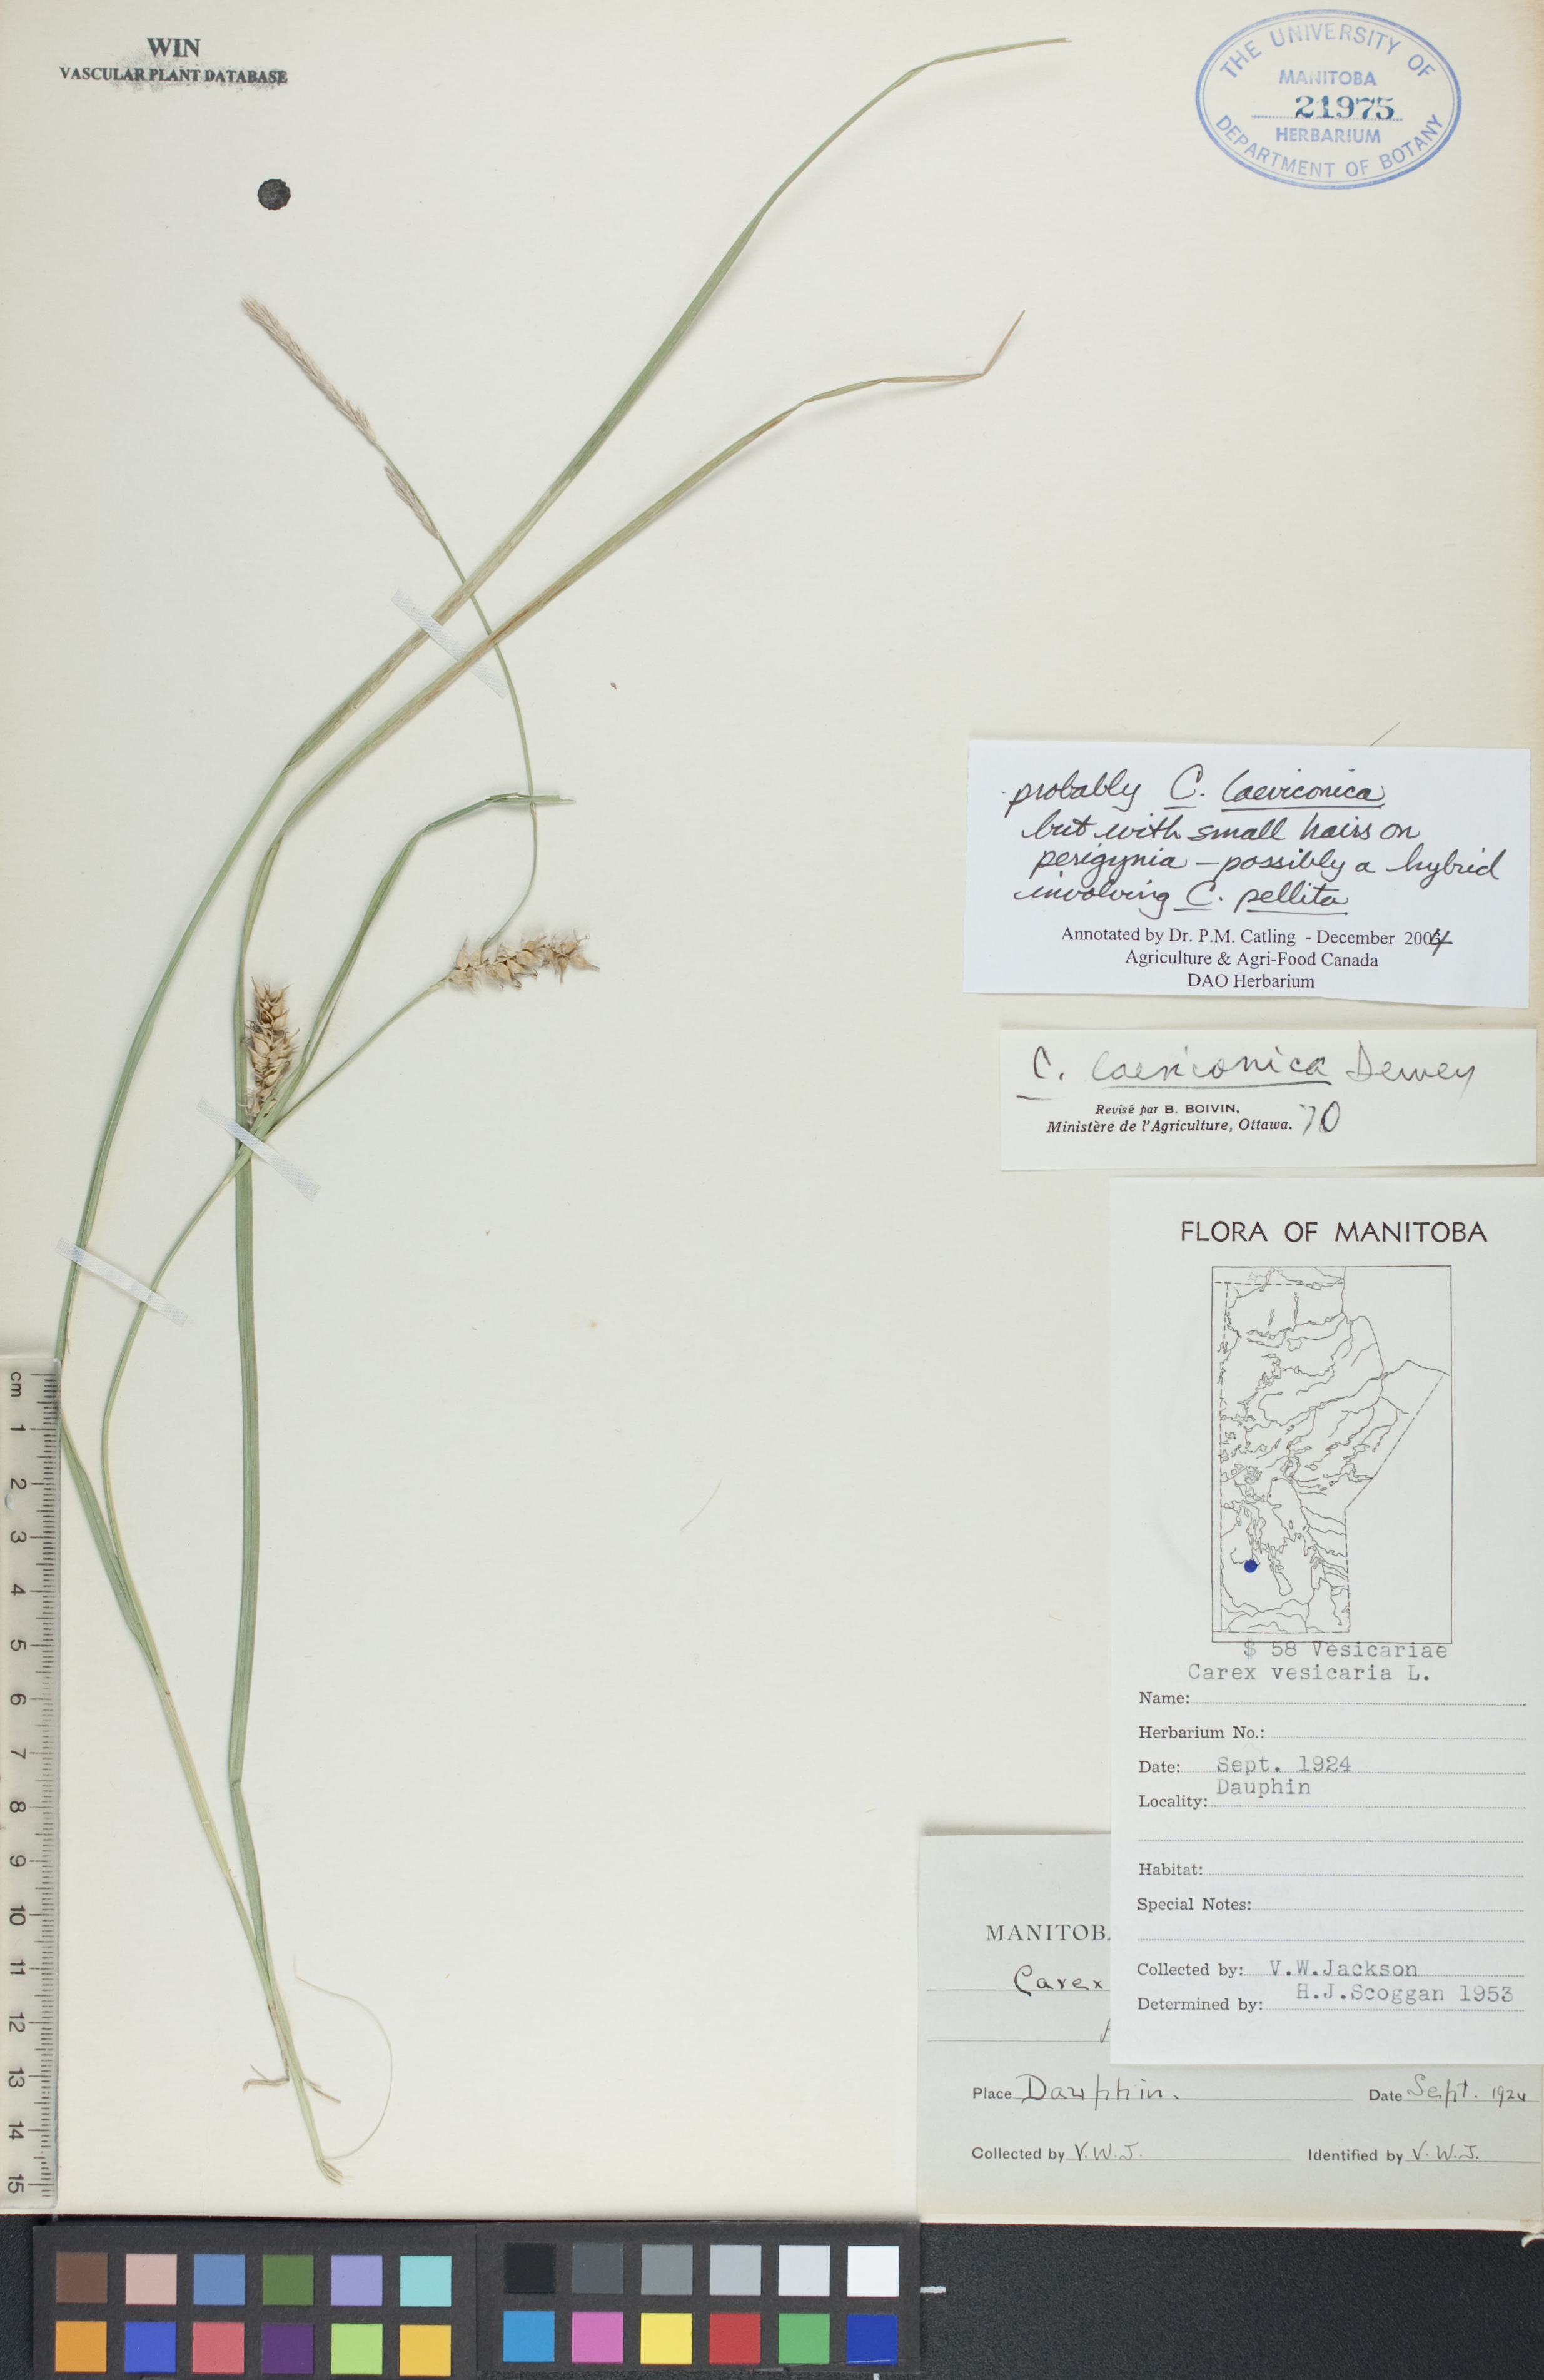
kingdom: Plantae
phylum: Tracheophyta
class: Liliopsida
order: Poales
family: Cyperaceae
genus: Carex
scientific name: Carex laeviconica
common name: Plains slough sedge
